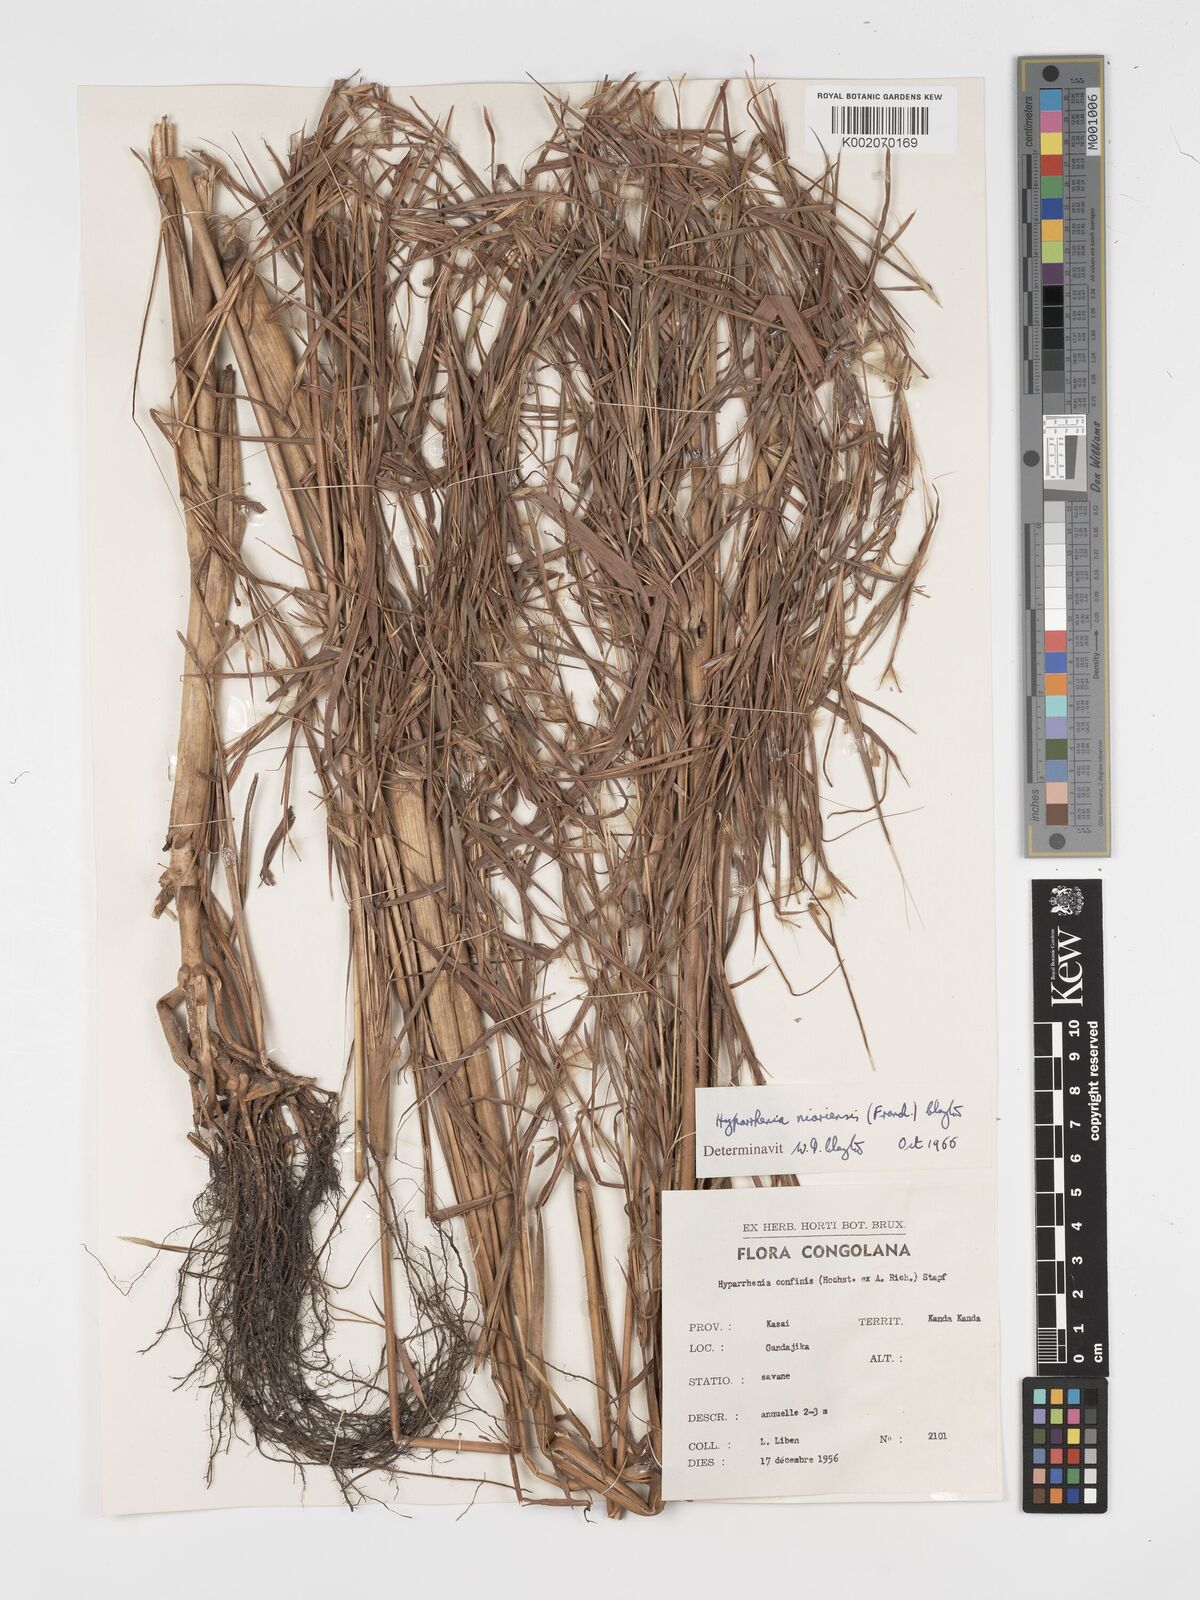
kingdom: Plantae
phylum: Tracheophyta
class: Liliopsida
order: Poales
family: Poaceae
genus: Hyparrhenia
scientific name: Hyparrhenia niariensis
